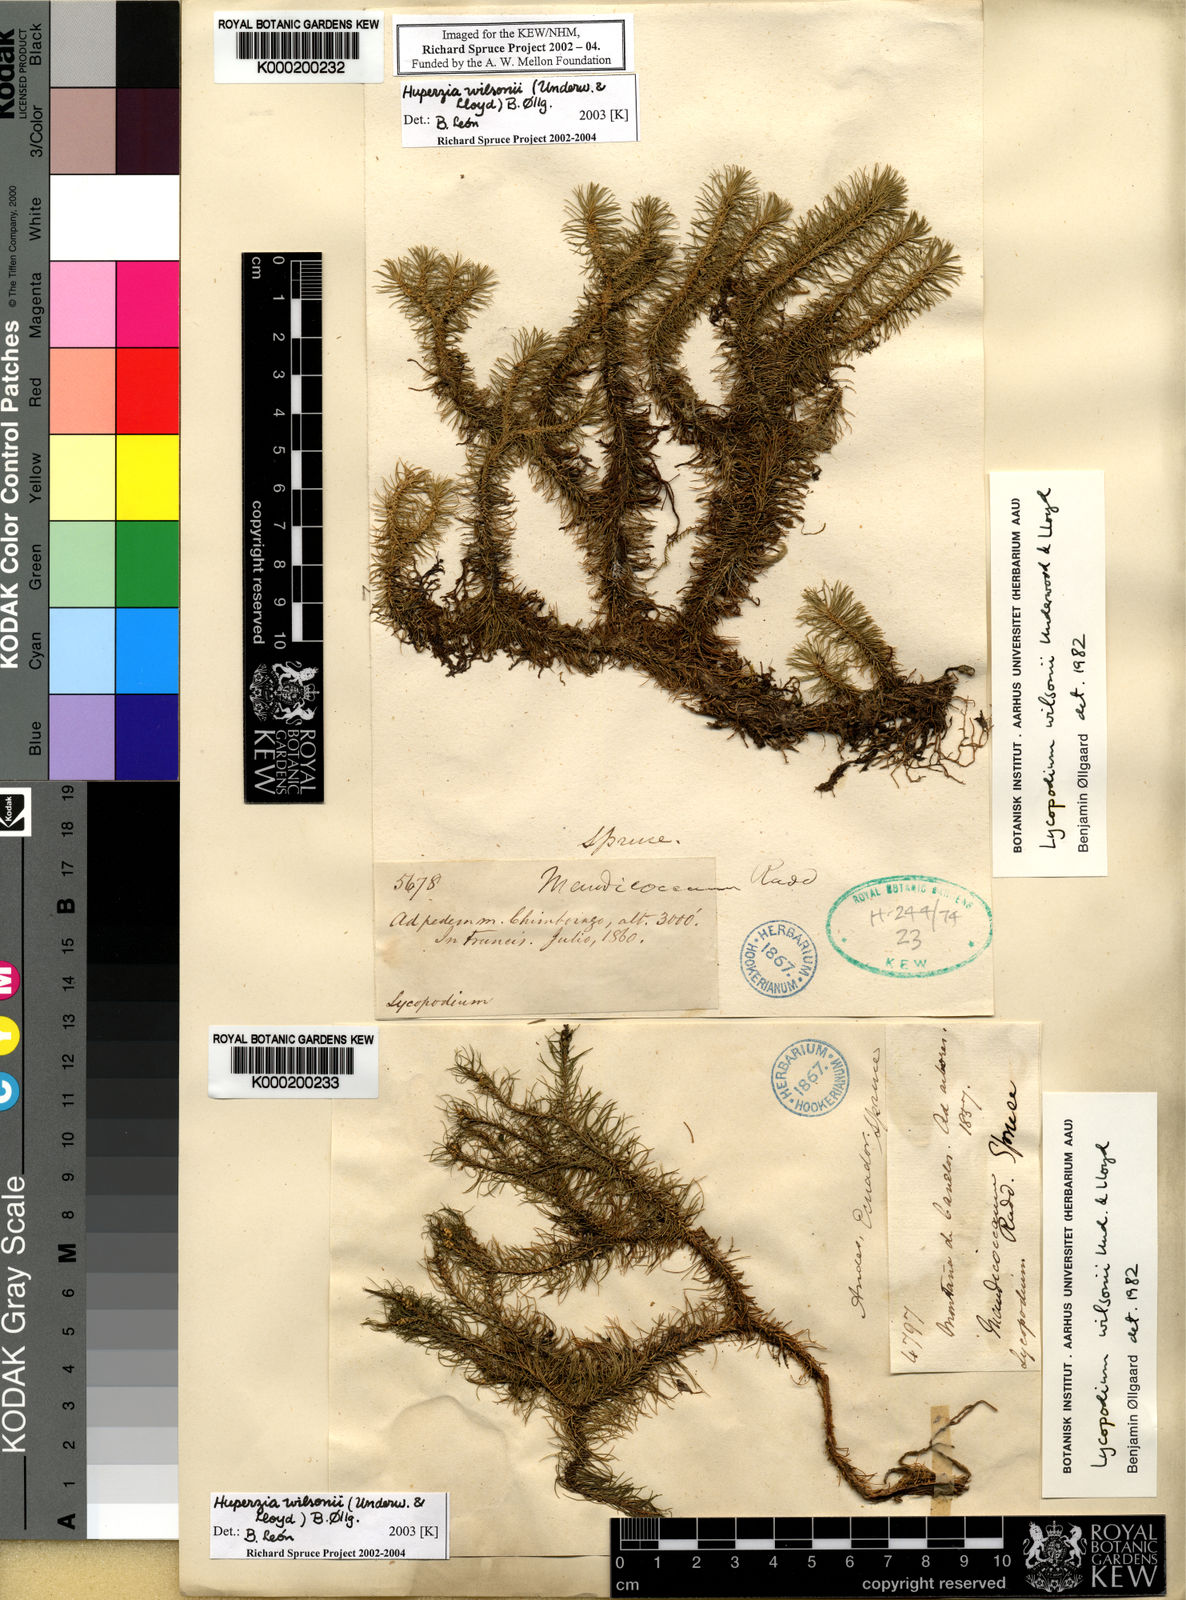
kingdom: Plantae
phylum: Tracheophyta
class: Lycopodiopsida
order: Lycopodiales
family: Lycopodiaceae
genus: Huperzia
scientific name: Huperzia
